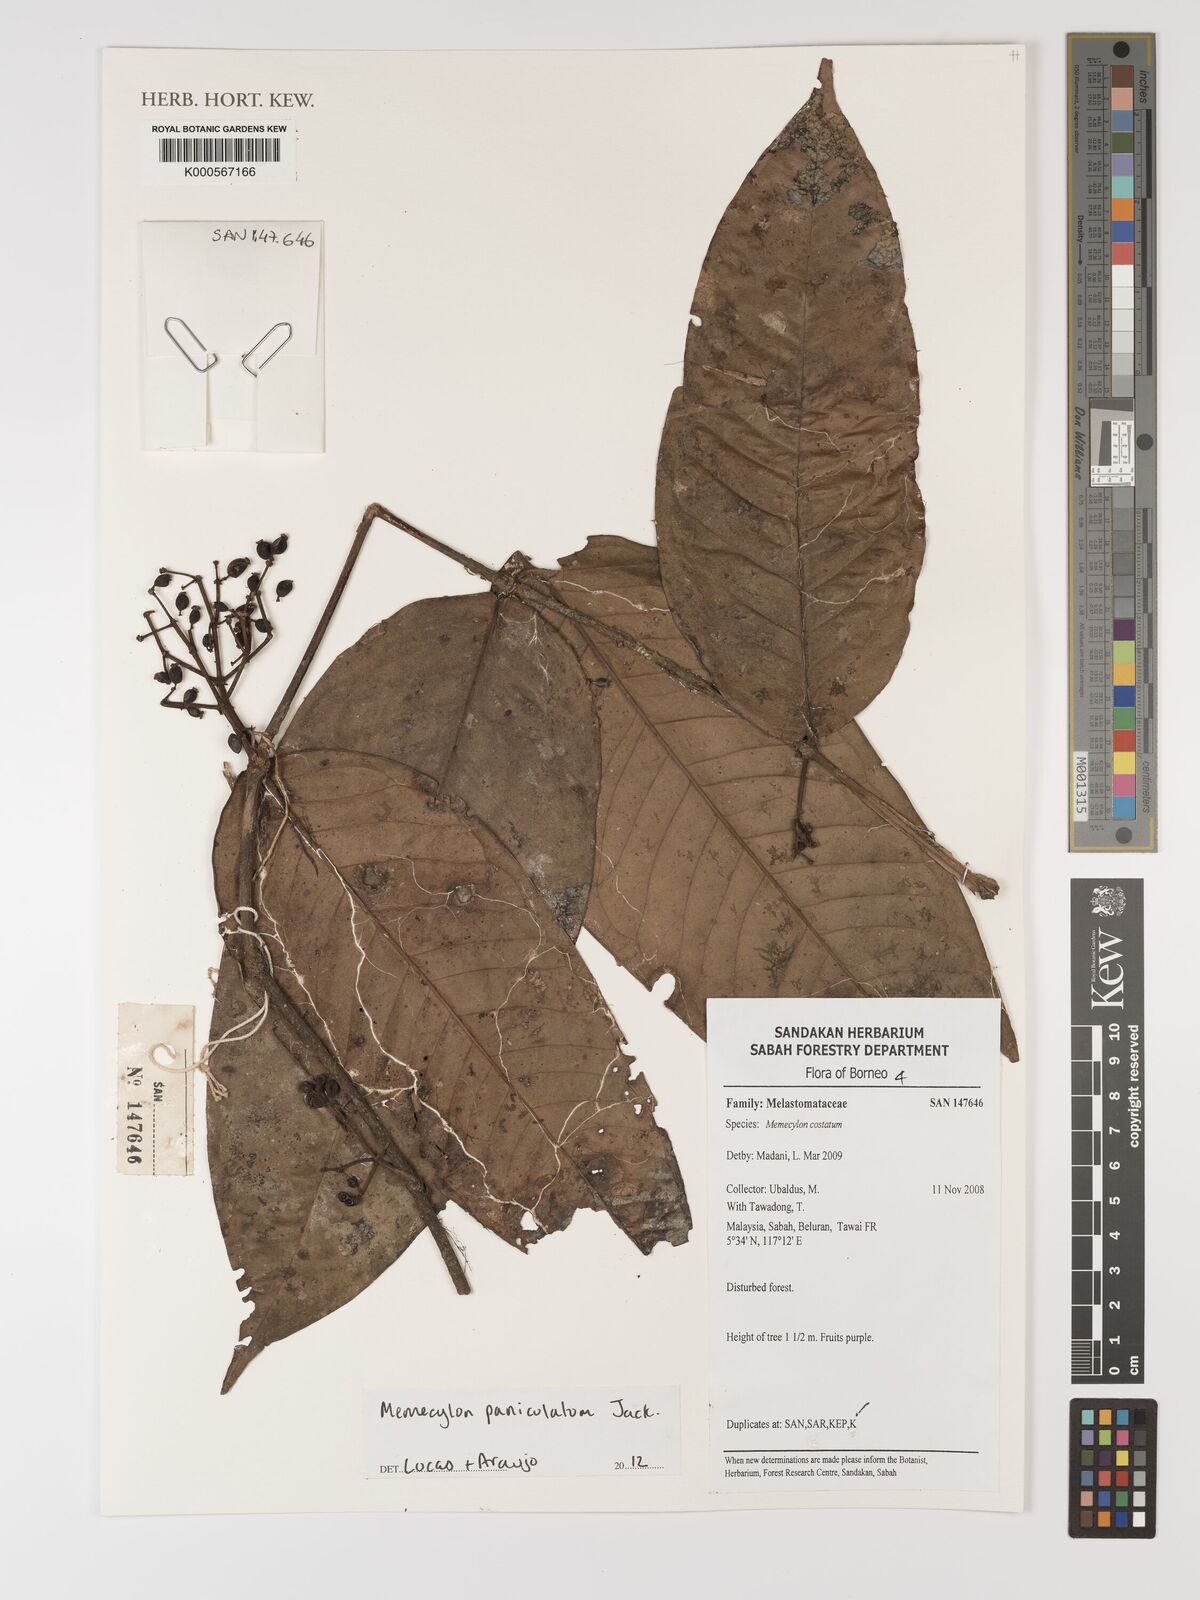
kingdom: Plantae
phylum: Tracheophyta
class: Magnoliopsida
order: Myrtales
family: Melastomataceae
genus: Memecylon
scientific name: Memecylon paniculatum
